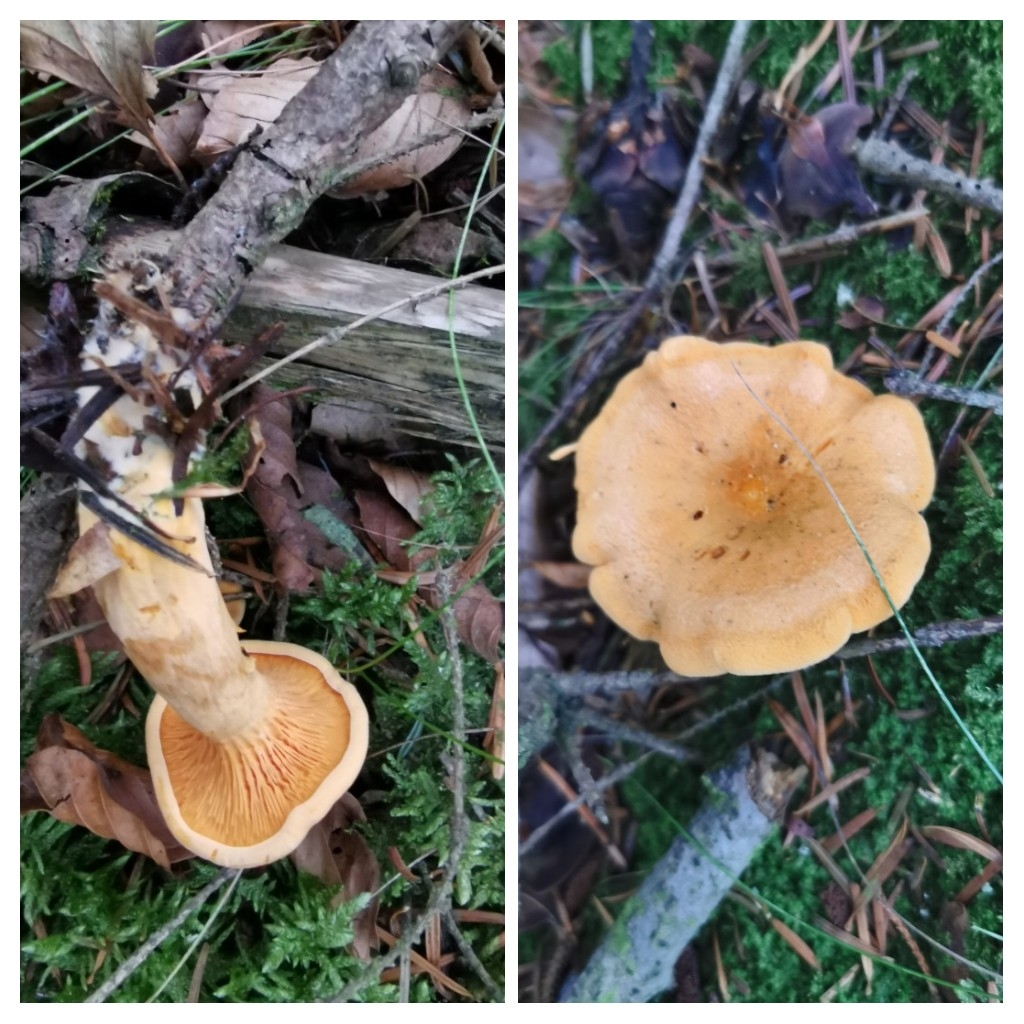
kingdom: Fungi
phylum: Basidiomycota
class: Agaricomycetes
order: Boletales
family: Hygrophoropsidaceae
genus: Hygrophoropsis
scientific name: Hygrophoropsis aurantiaca
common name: almindelig orangekantarel
